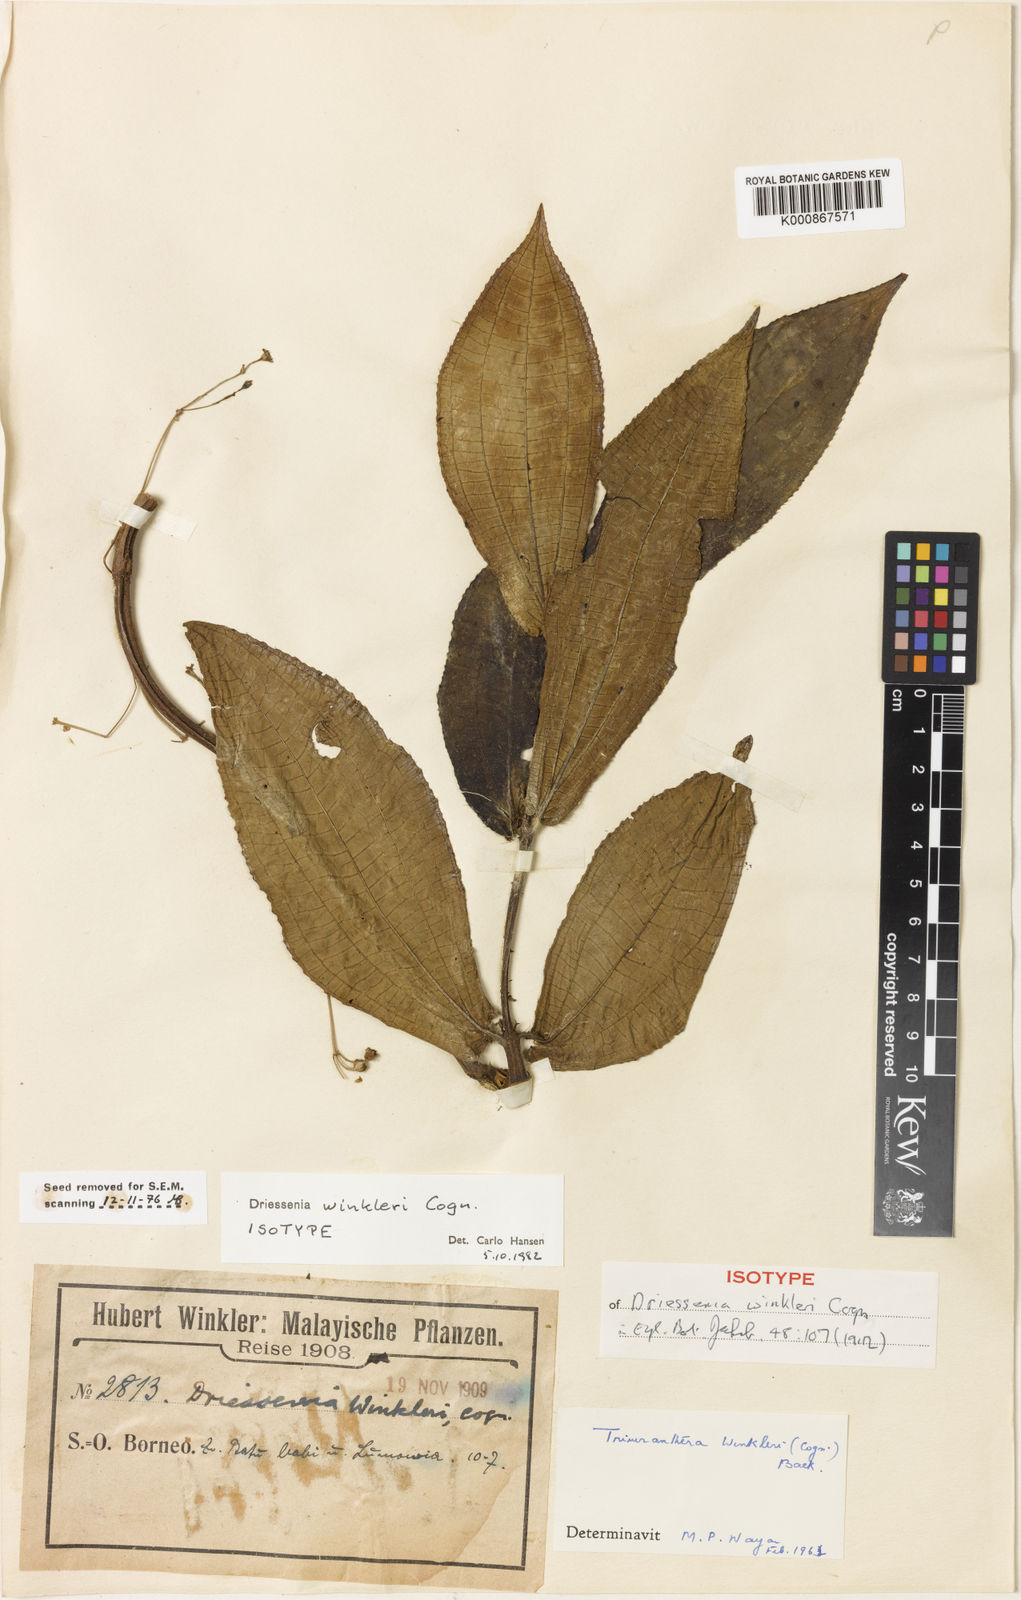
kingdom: Plantae
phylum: Tracheophyta
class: Magnoliopsida
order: Myrtales
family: Melastomataceae
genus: Driessenia
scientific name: Driessenia winkleri
